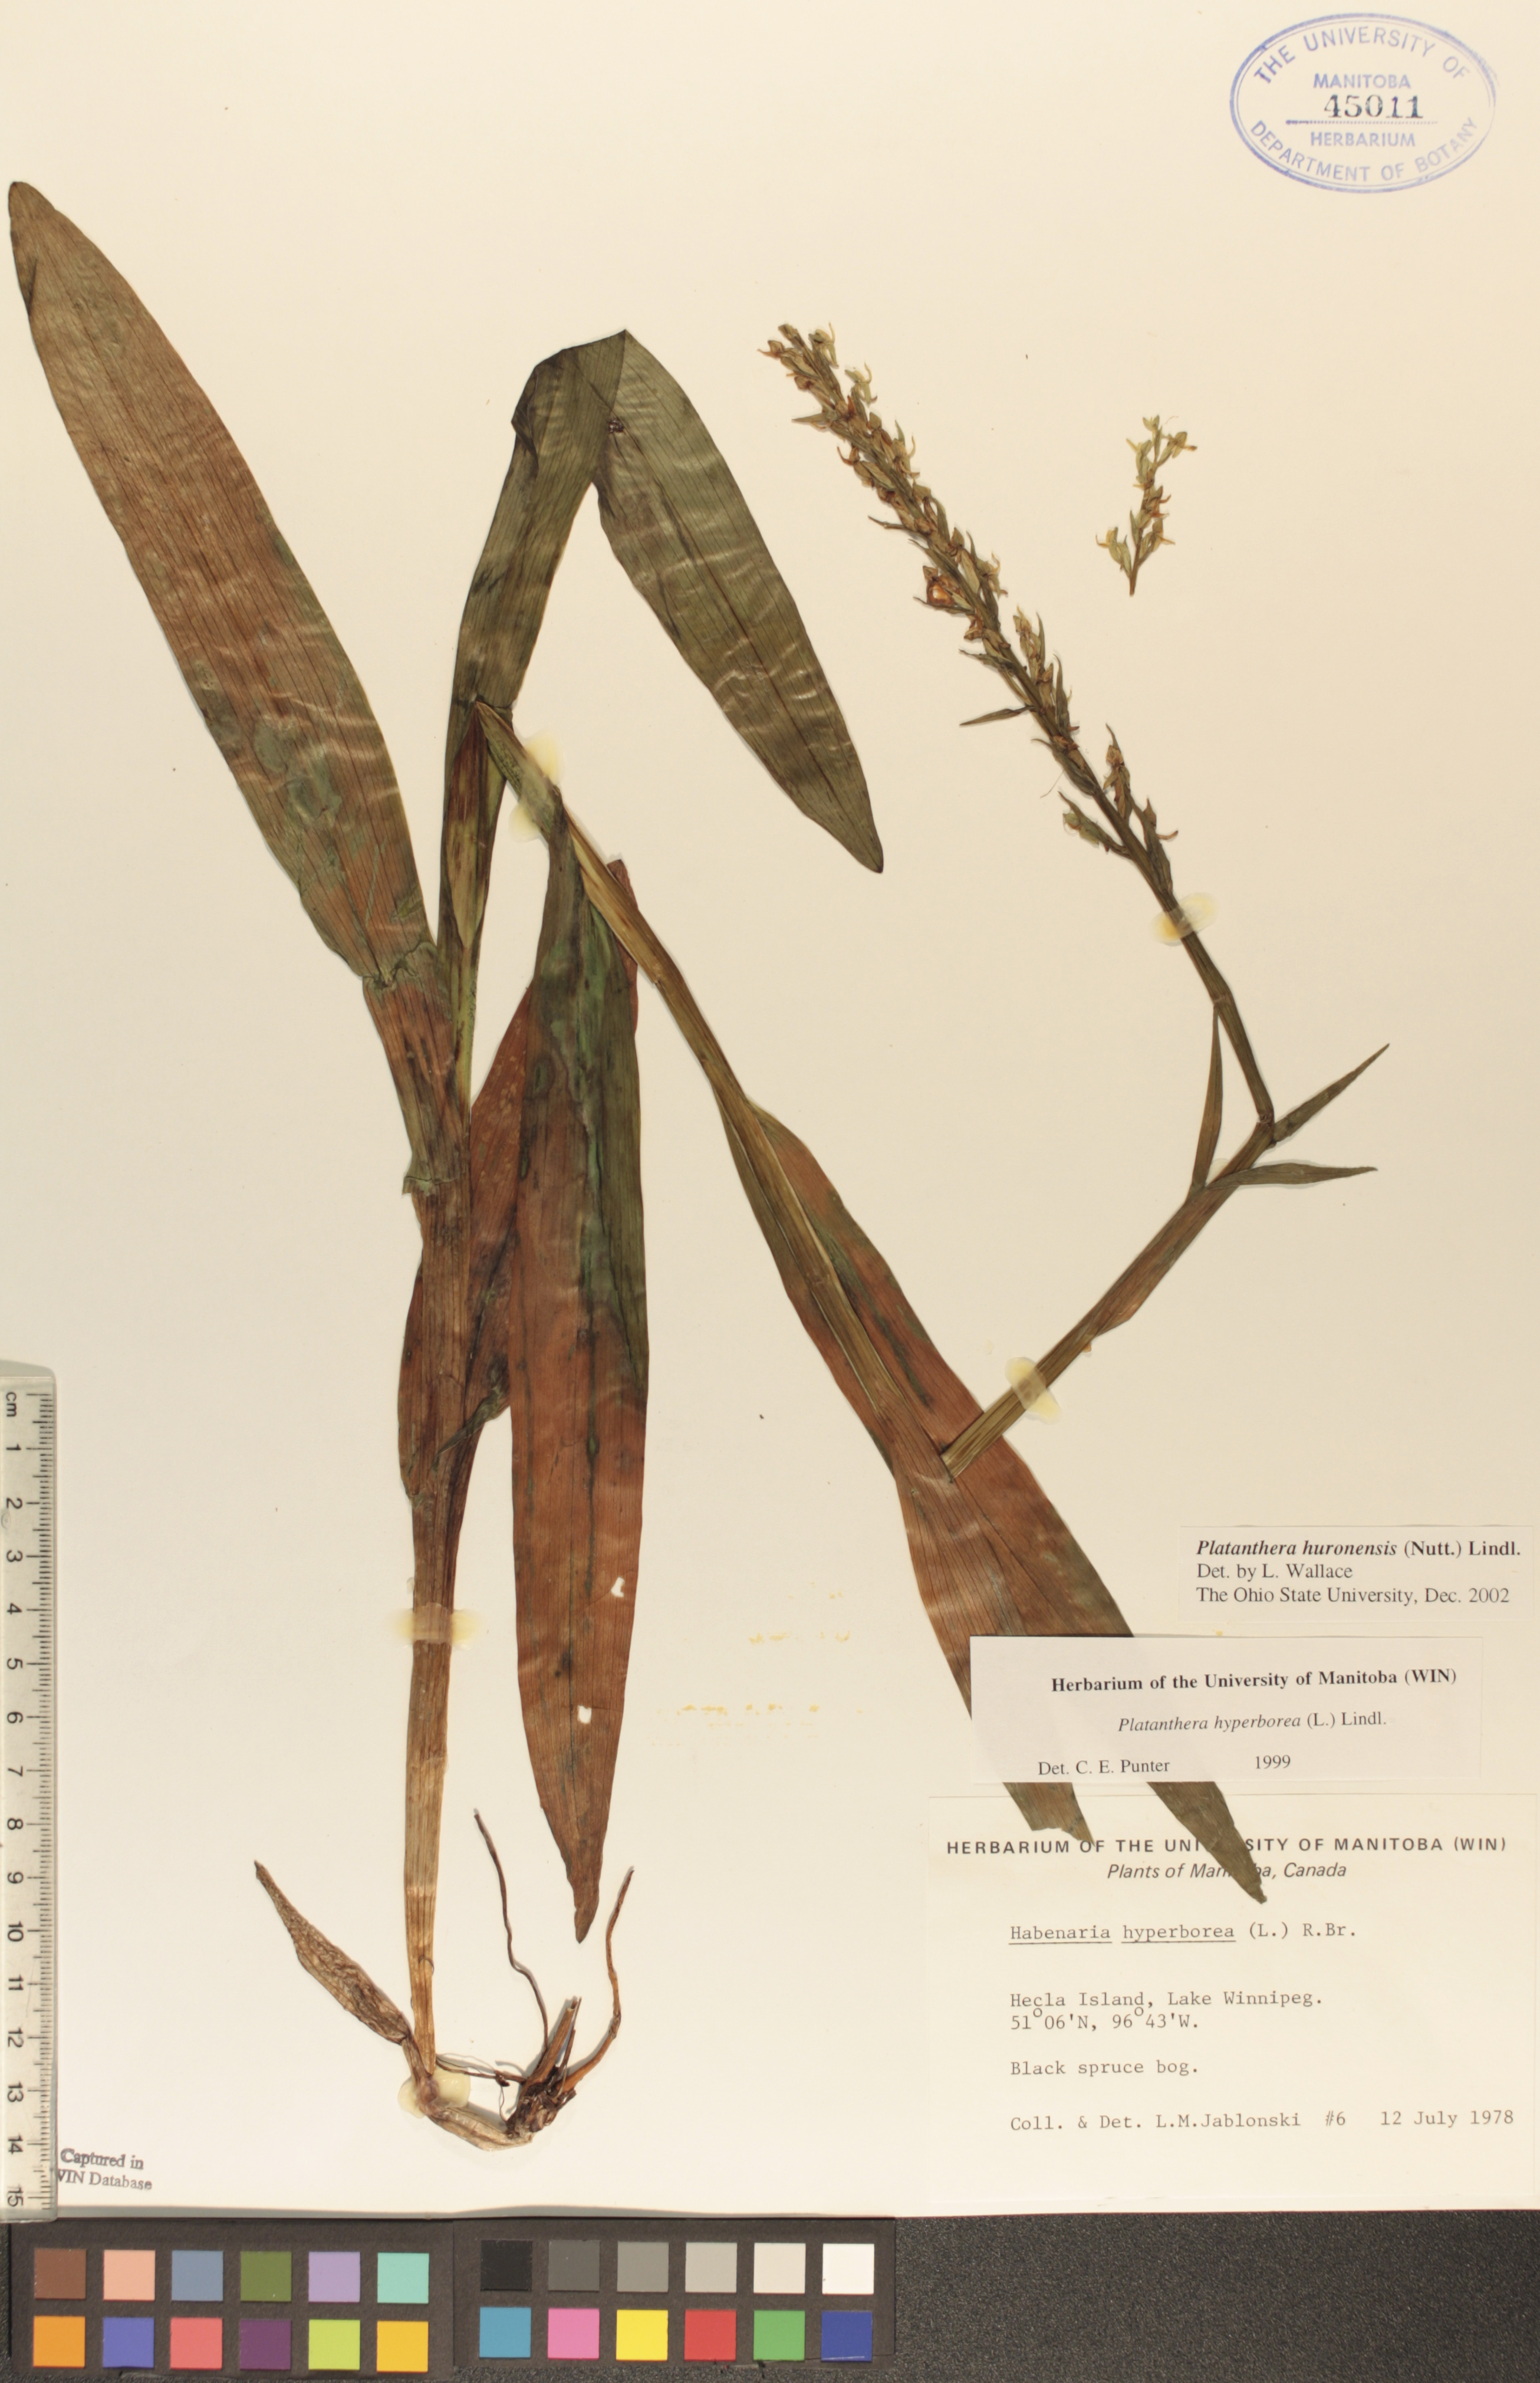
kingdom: Plantae
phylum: Tracheophyta
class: Liliopsida
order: Asparagales
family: Orchidaceae
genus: Platanthera
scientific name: Platanthera huronensis
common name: Fragrant green orchid
